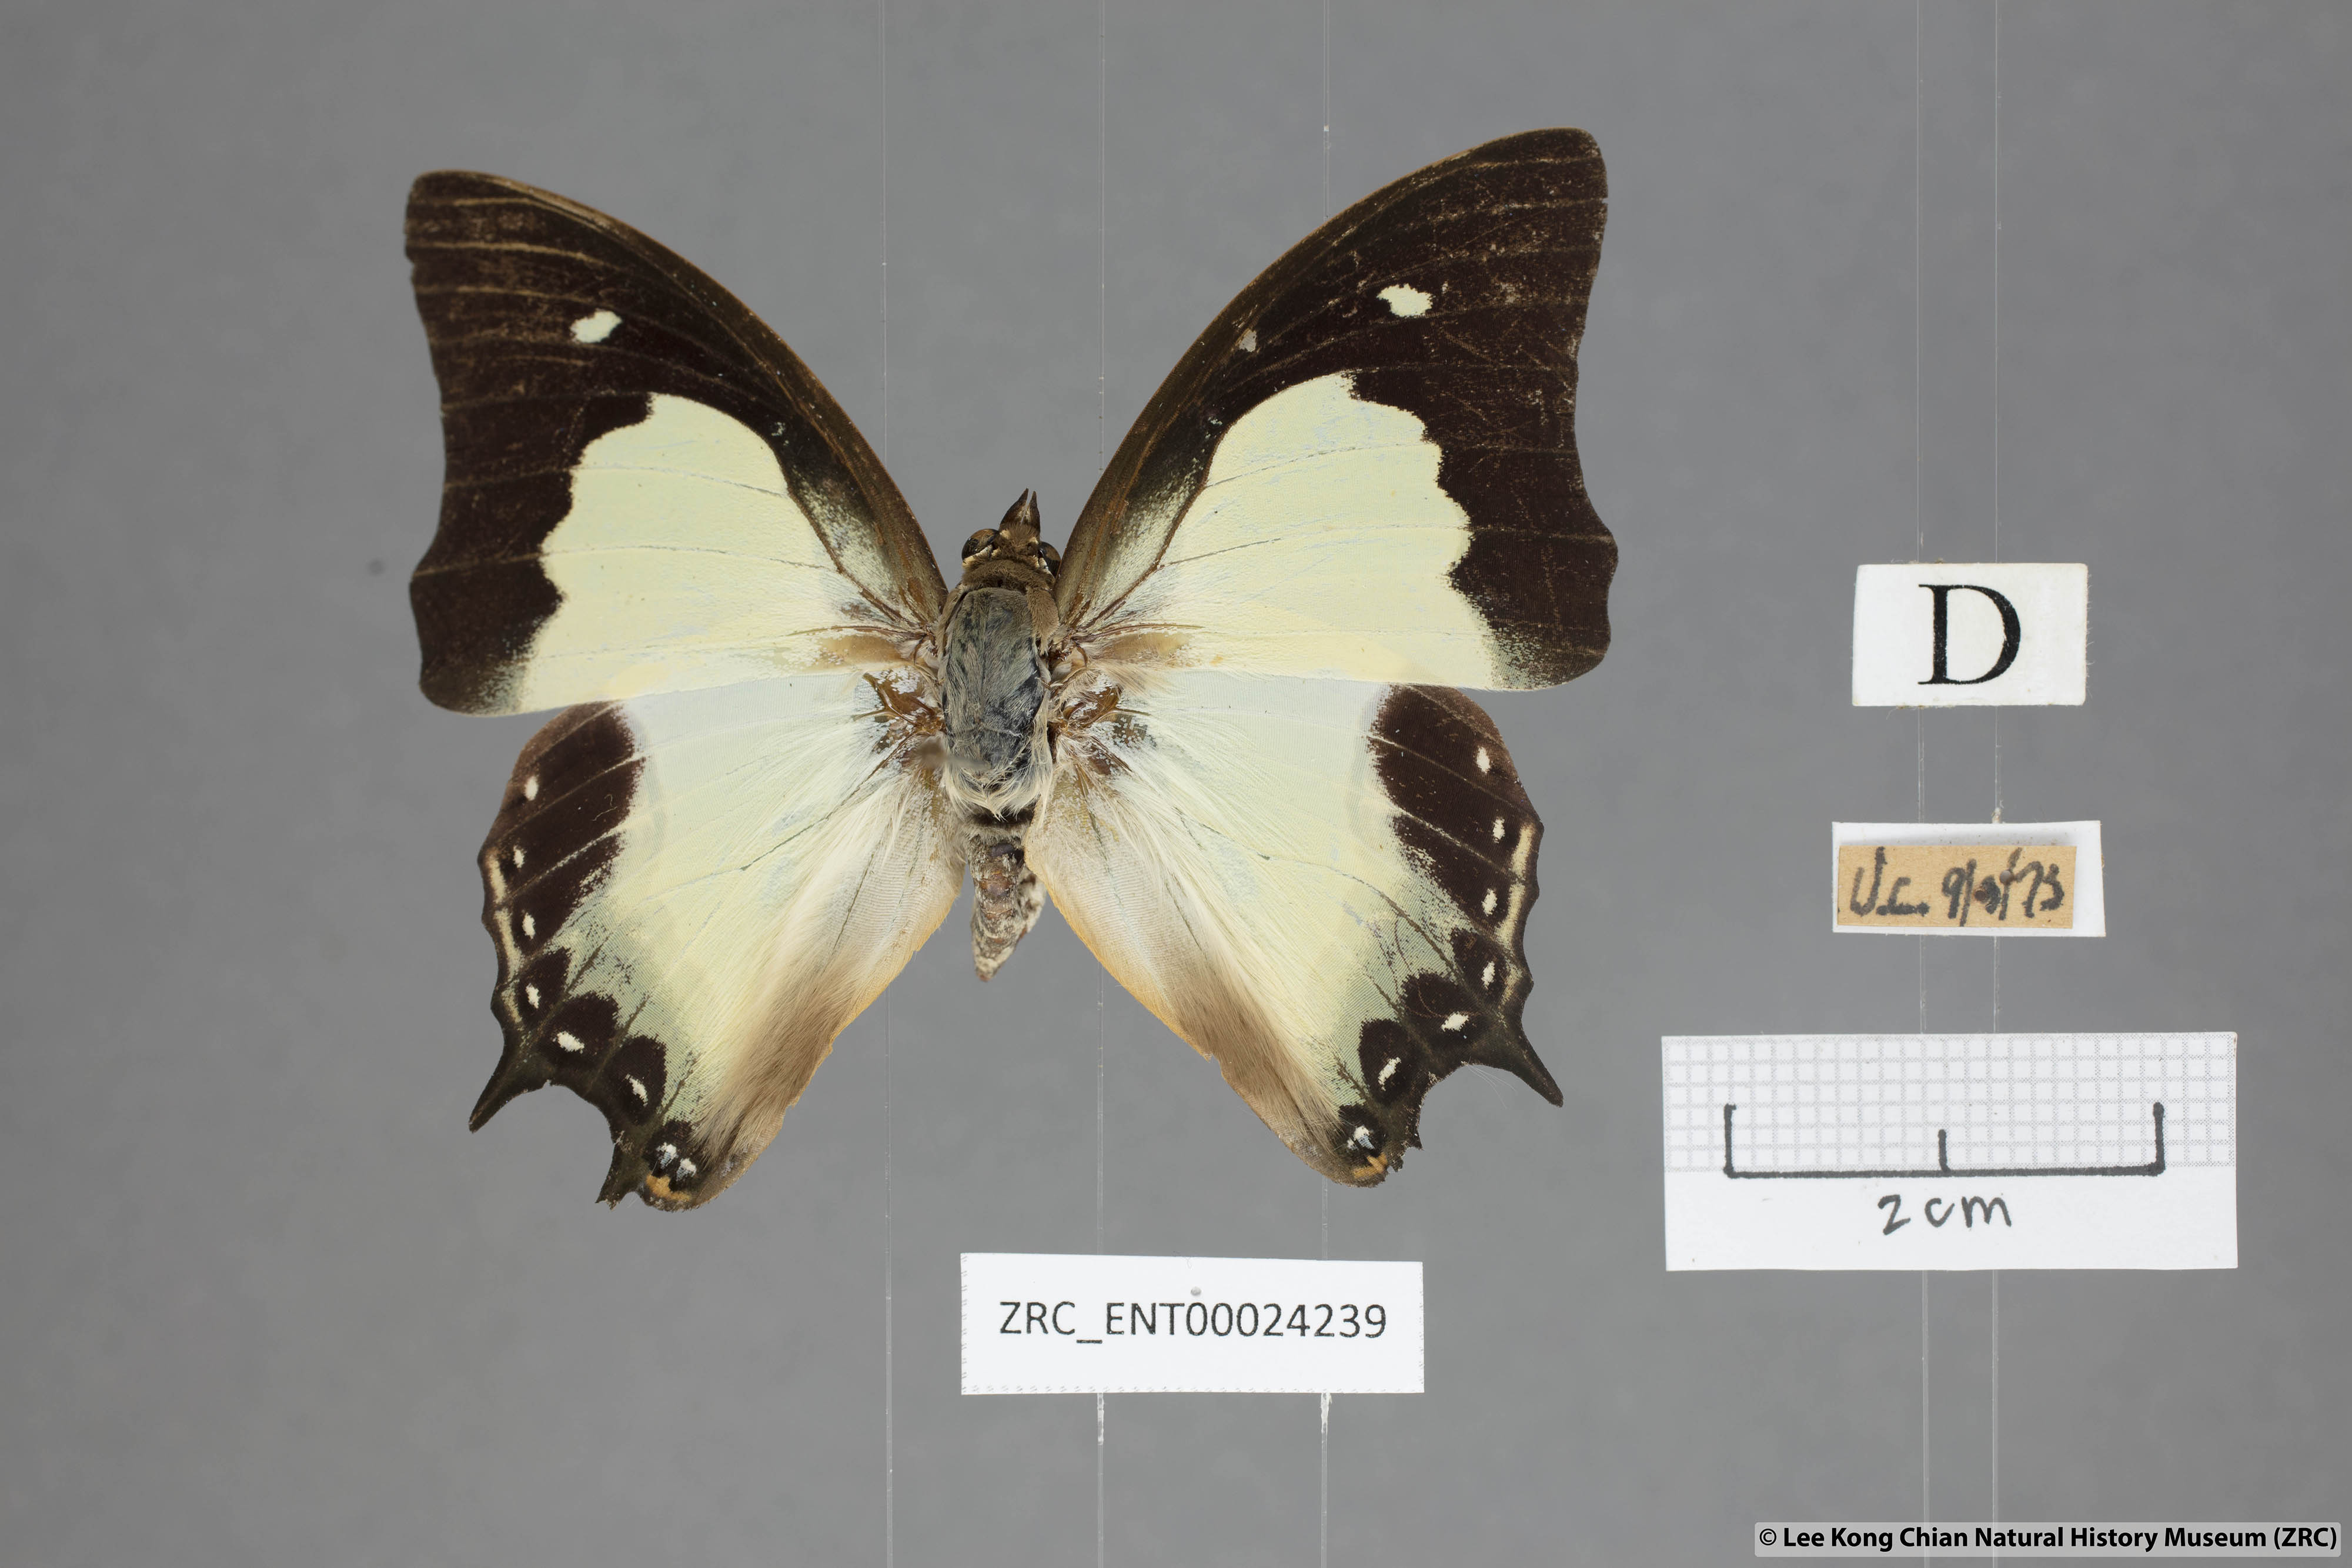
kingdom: Animalia
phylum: Arthropoda
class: Insecta
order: Lepidoptera
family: Nymphalidae
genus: Polyura
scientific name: Polyura moori
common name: Malayan nawab
